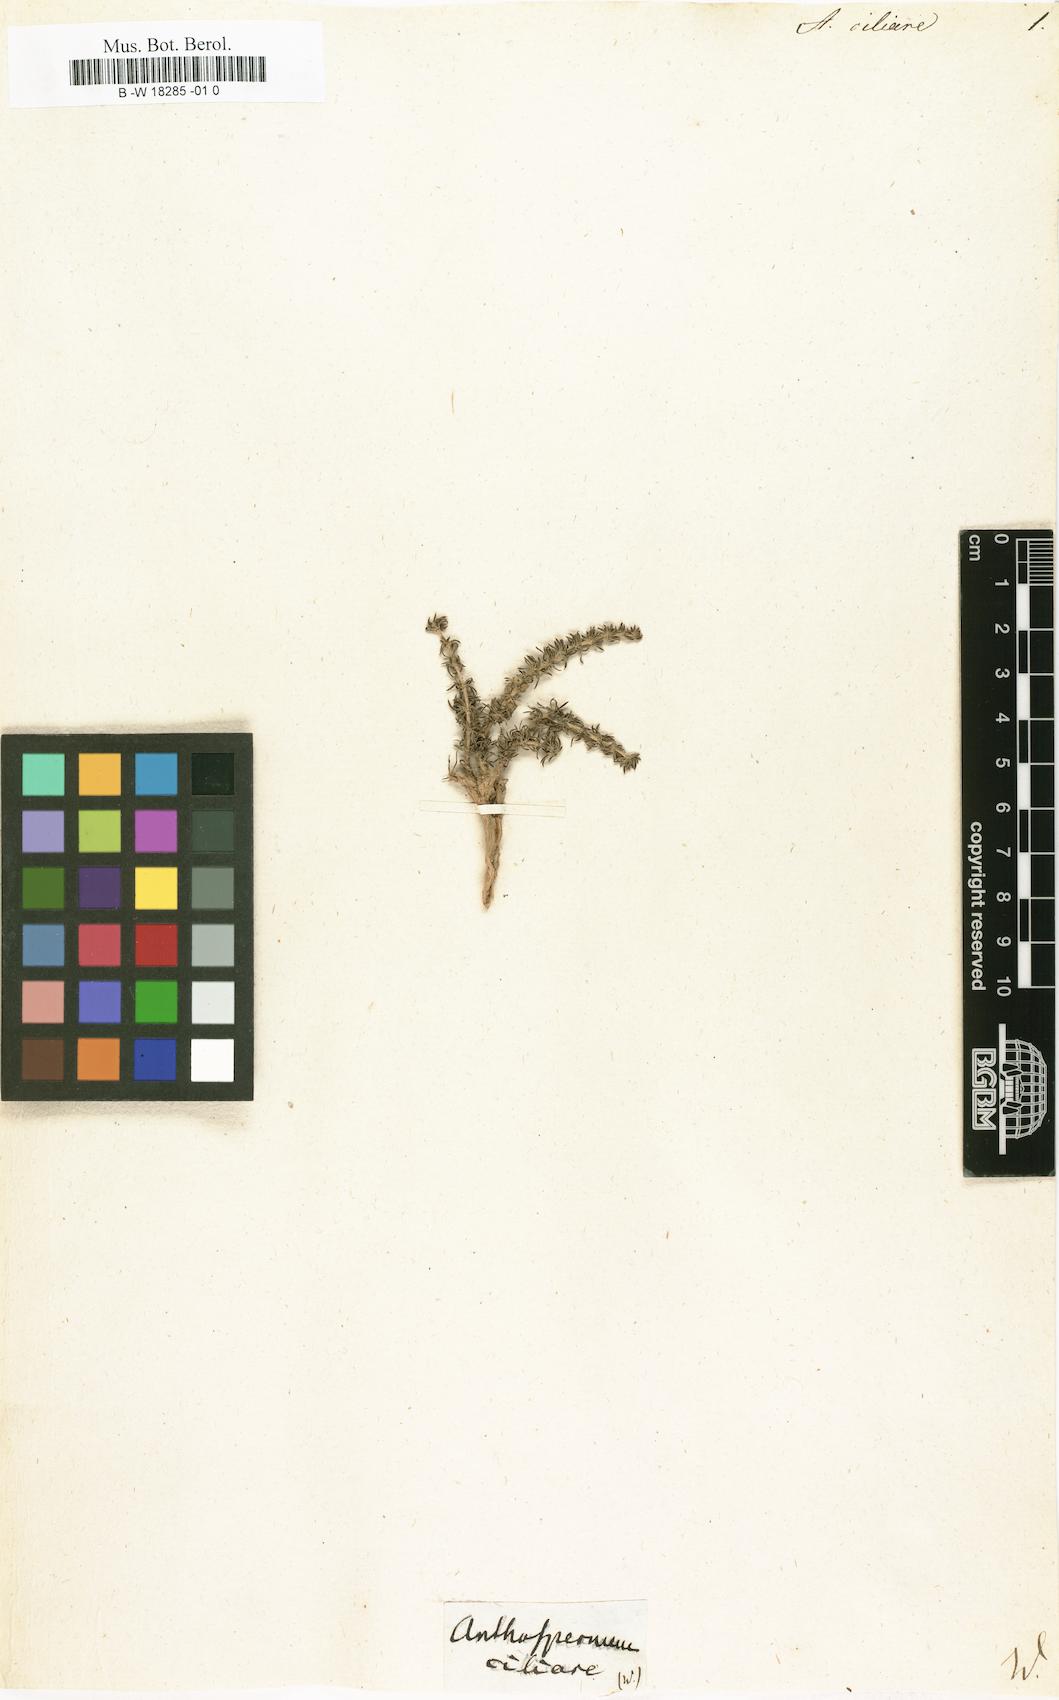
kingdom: Plantae
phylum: Tracheophyta
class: Magnoliopsida
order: Gentianales
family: Rubiaceae
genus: Anthospermum
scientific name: Anthospermum hirtum
